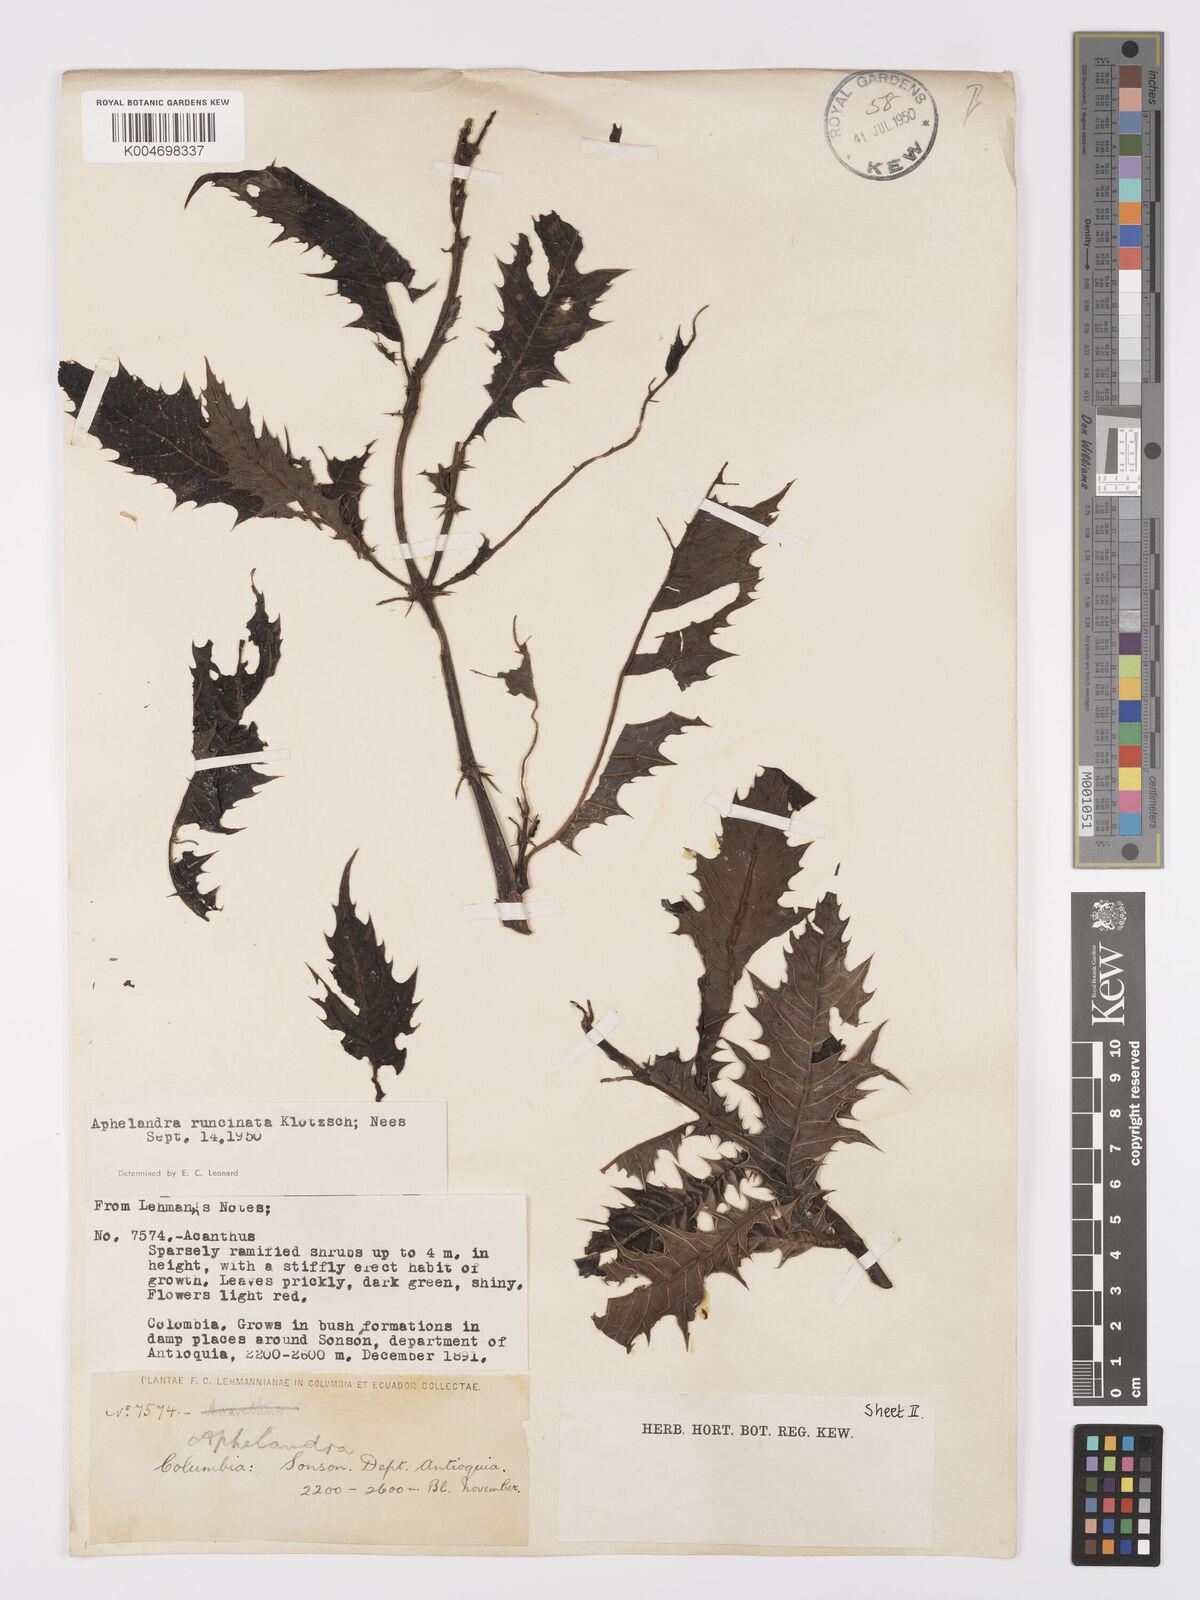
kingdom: Plantae
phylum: Tracheophyta
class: Magnoliopsida
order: Lamiales
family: Acanthaceae
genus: Aphelandra
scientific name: Aphelandra runcinata
